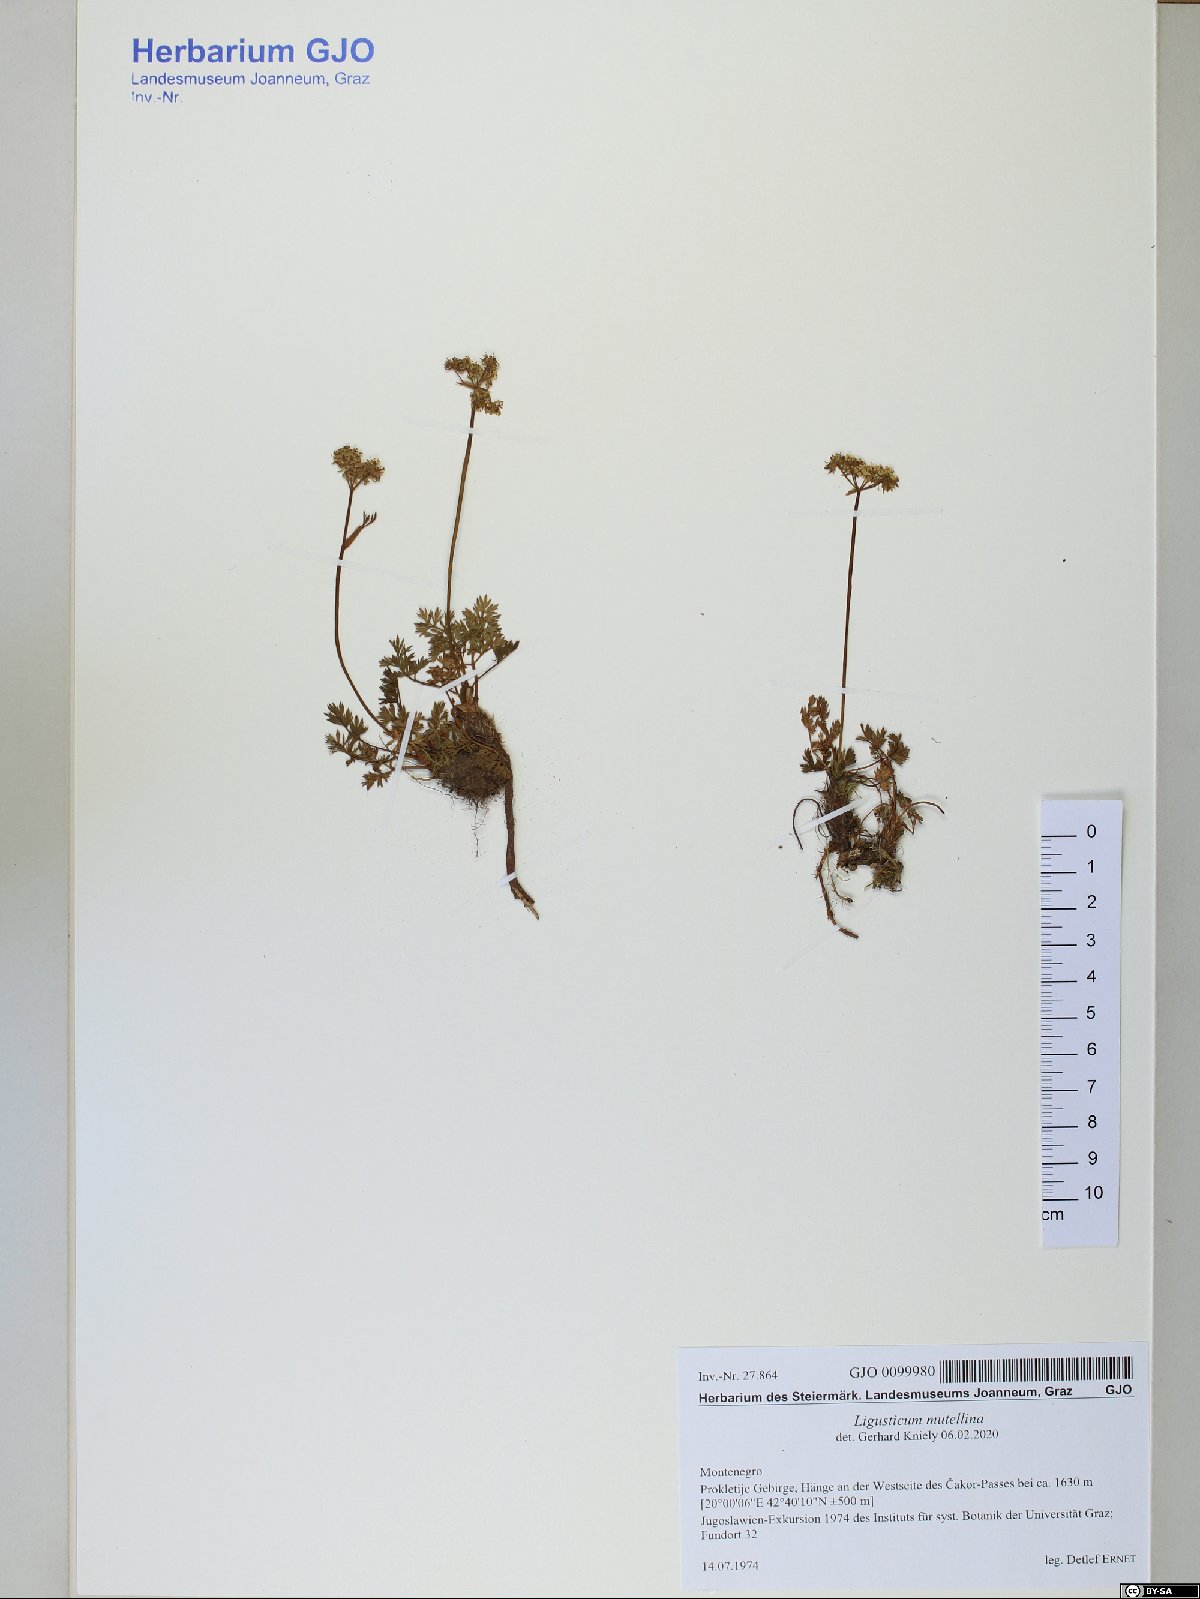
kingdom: Plantae
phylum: Tracheophyta
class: Magnoliopsida
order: Apiales
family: Apiaceae
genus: Mutellina
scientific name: Mutellina adonidifolia
